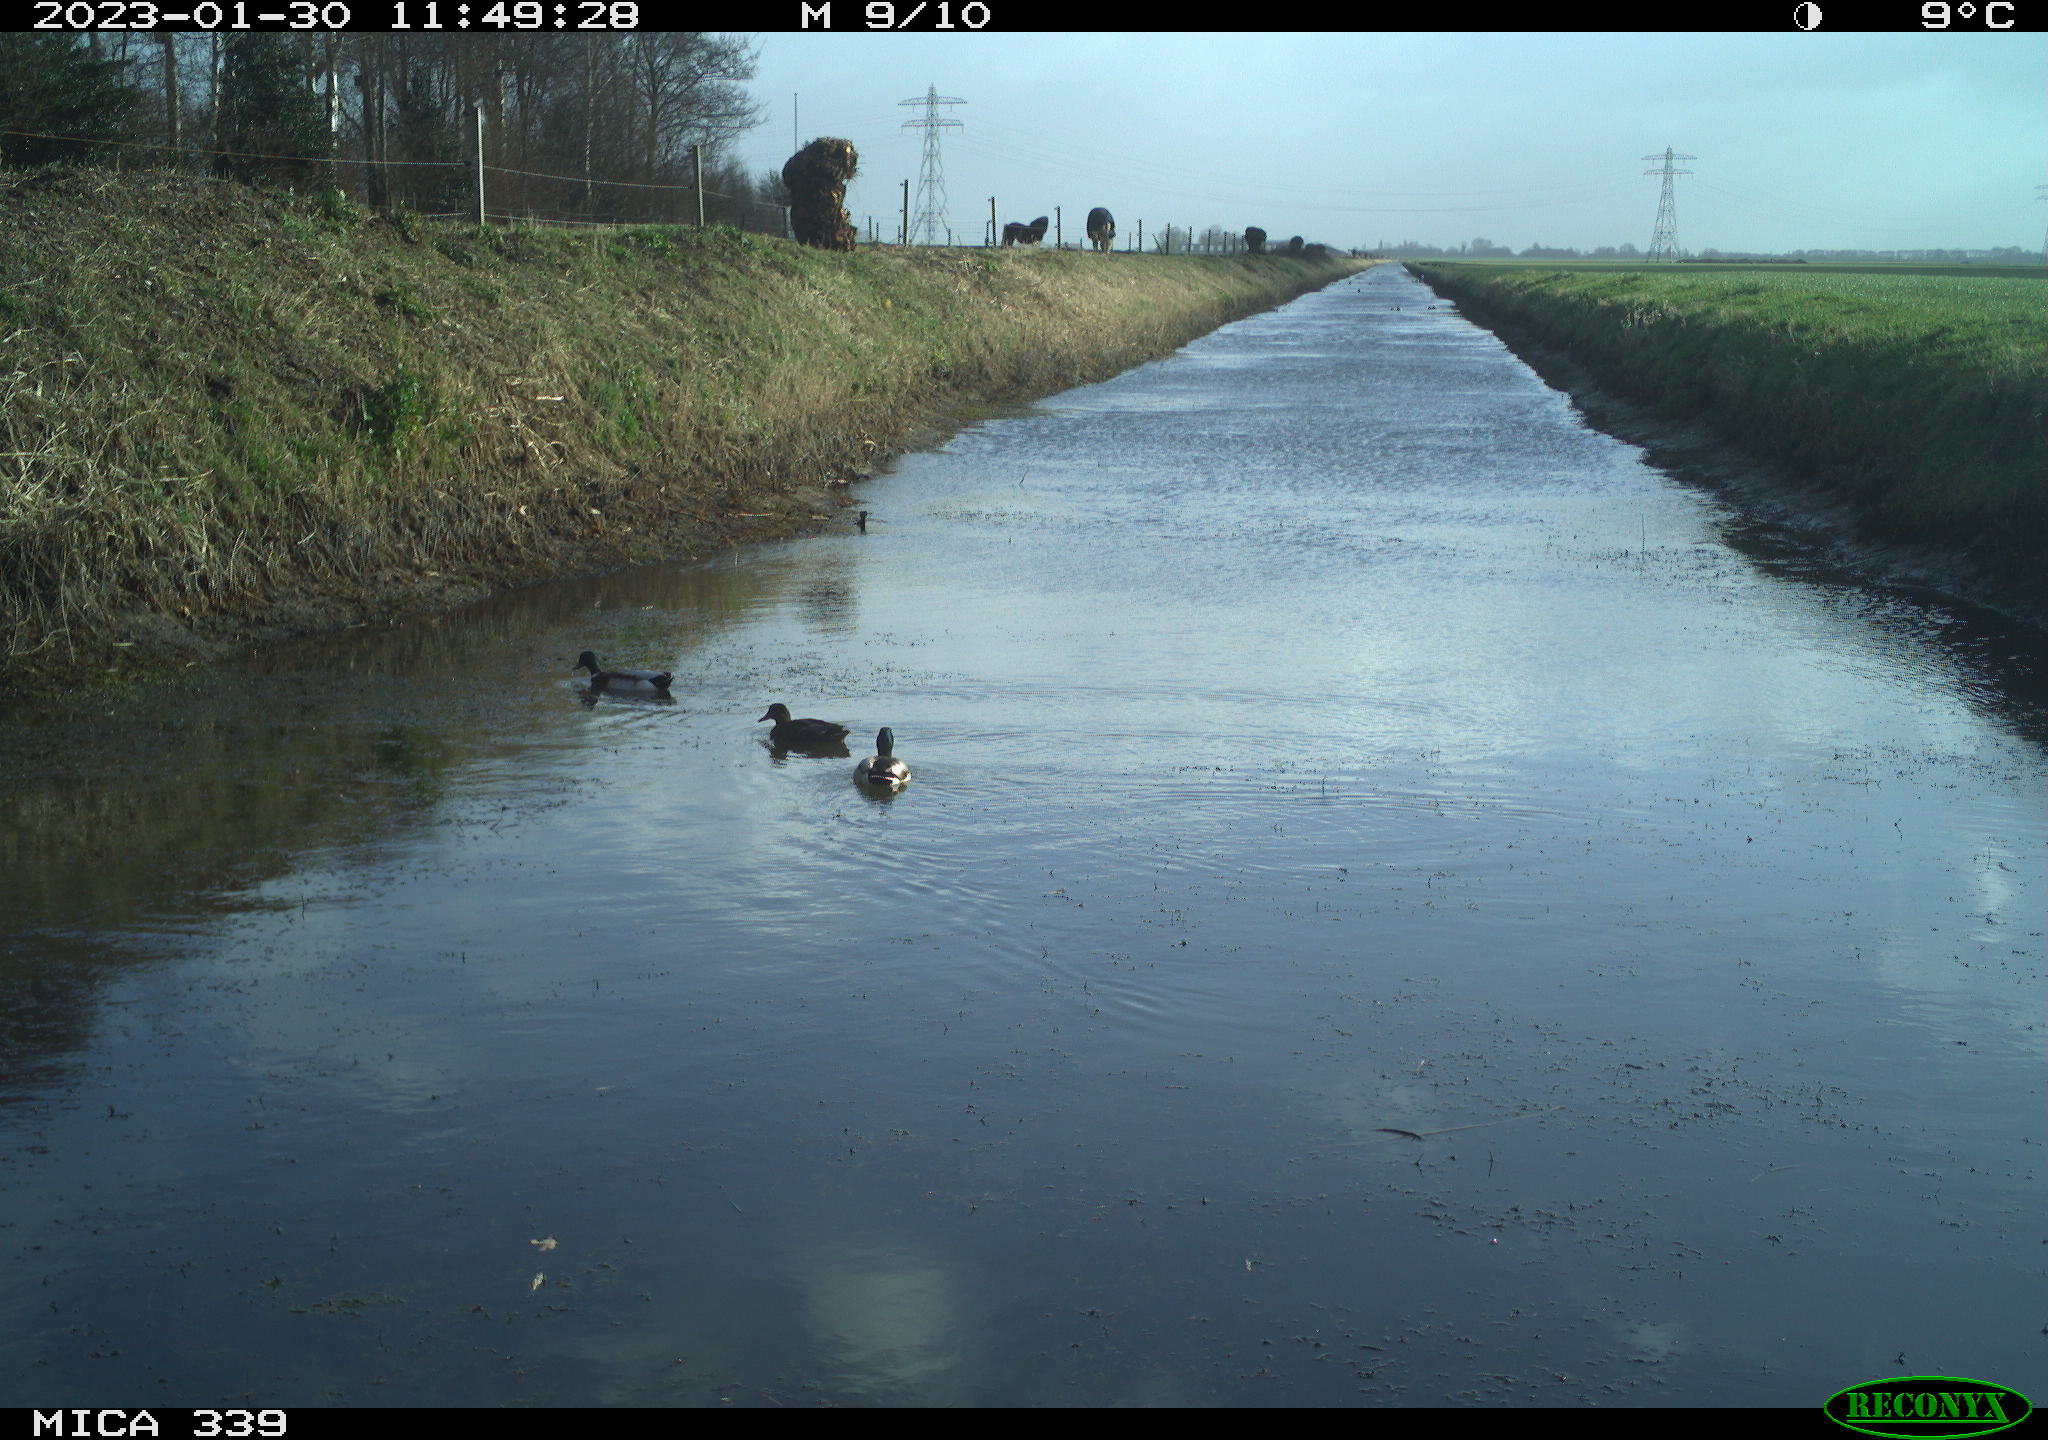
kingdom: Animalia
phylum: Chordata
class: Aves
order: Anseriformes
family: Anatidae
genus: Anas
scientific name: Anas
